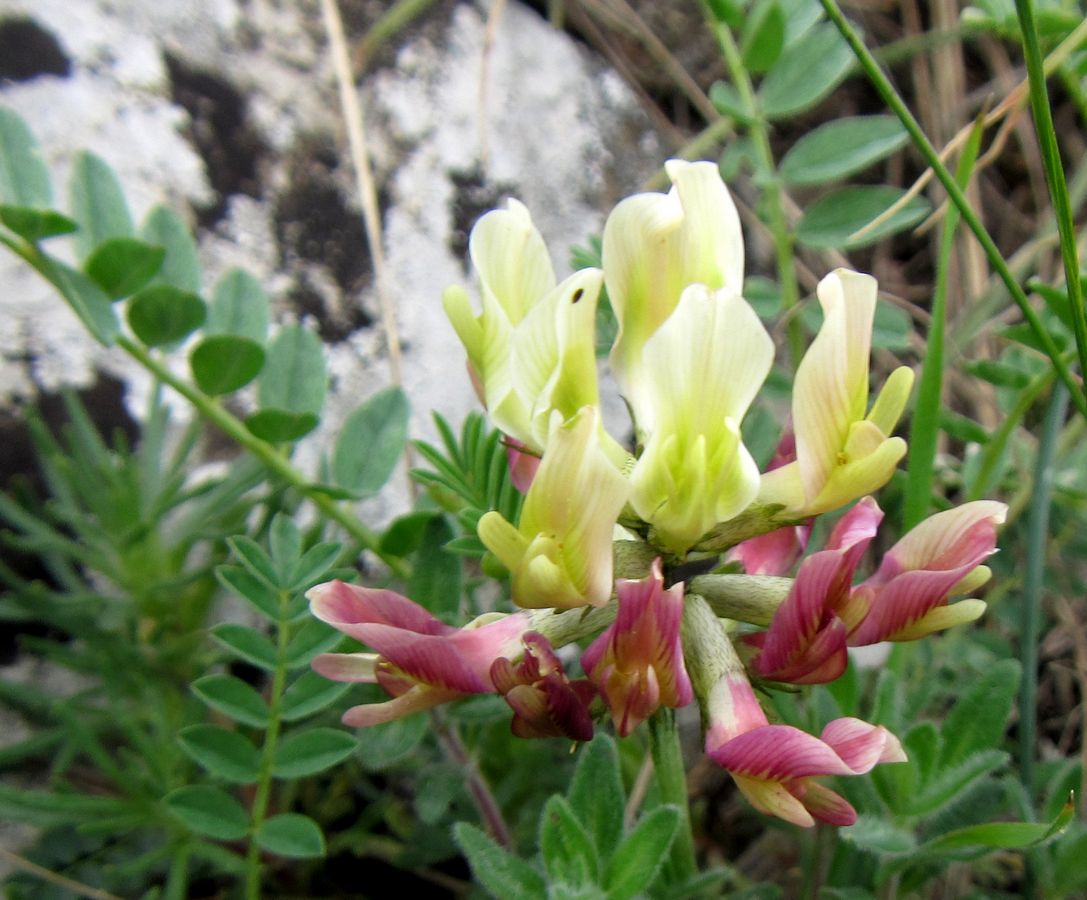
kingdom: Plantae
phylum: Tracheophyta
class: Magnoliopsida
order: Fabales
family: Fabaceae
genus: Astragalus
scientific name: Astragalus fragrans
